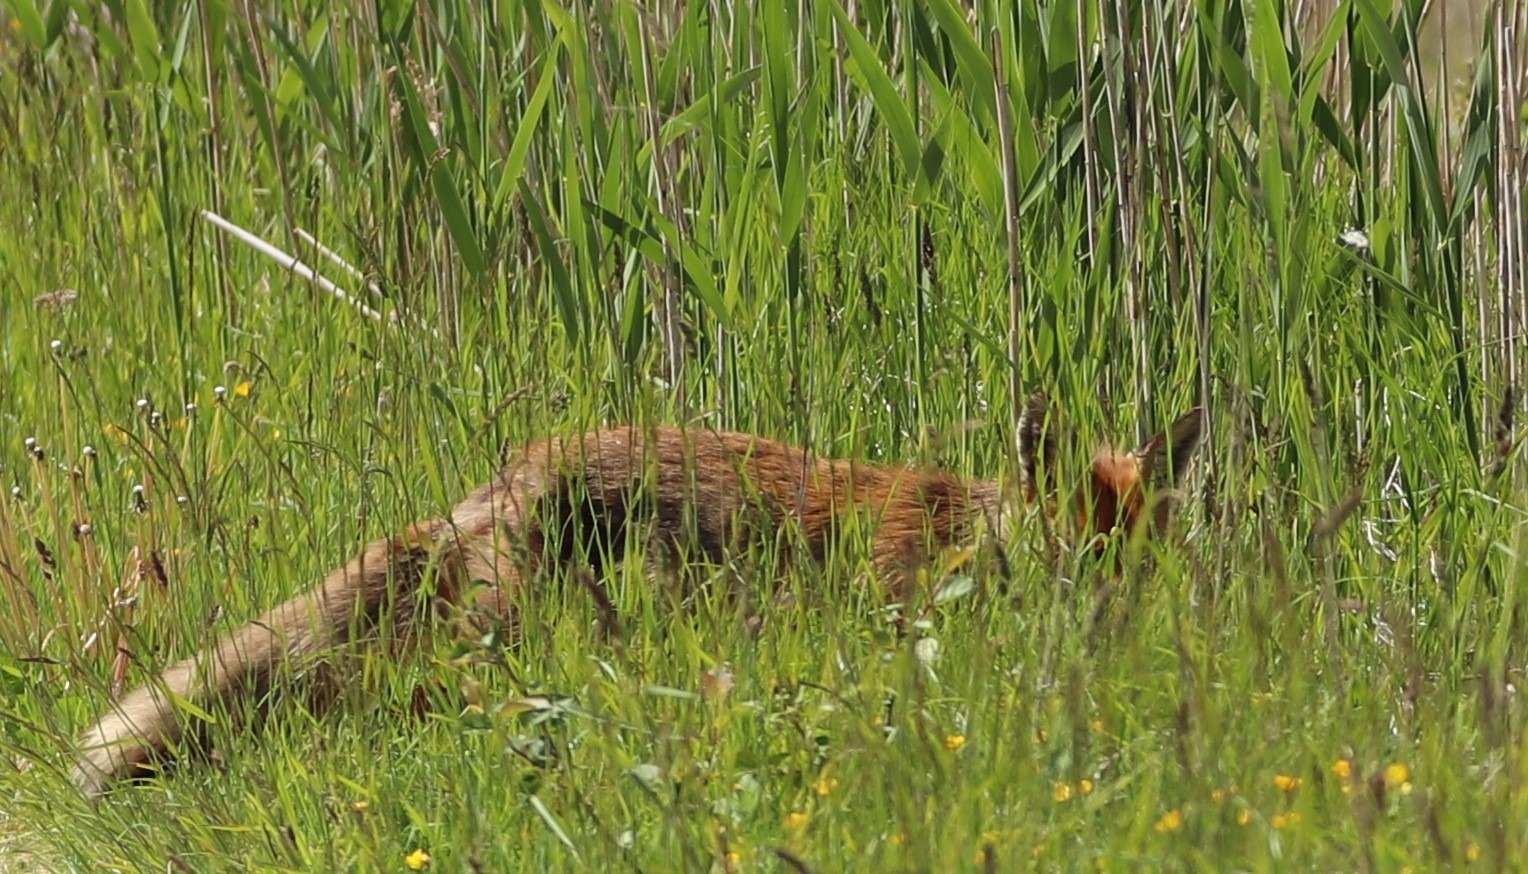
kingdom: Animalia
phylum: Chordata
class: Mammalia
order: Carnivora
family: Canidae
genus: Vulpes
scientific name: Vulpes vulpes
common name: Ræv
